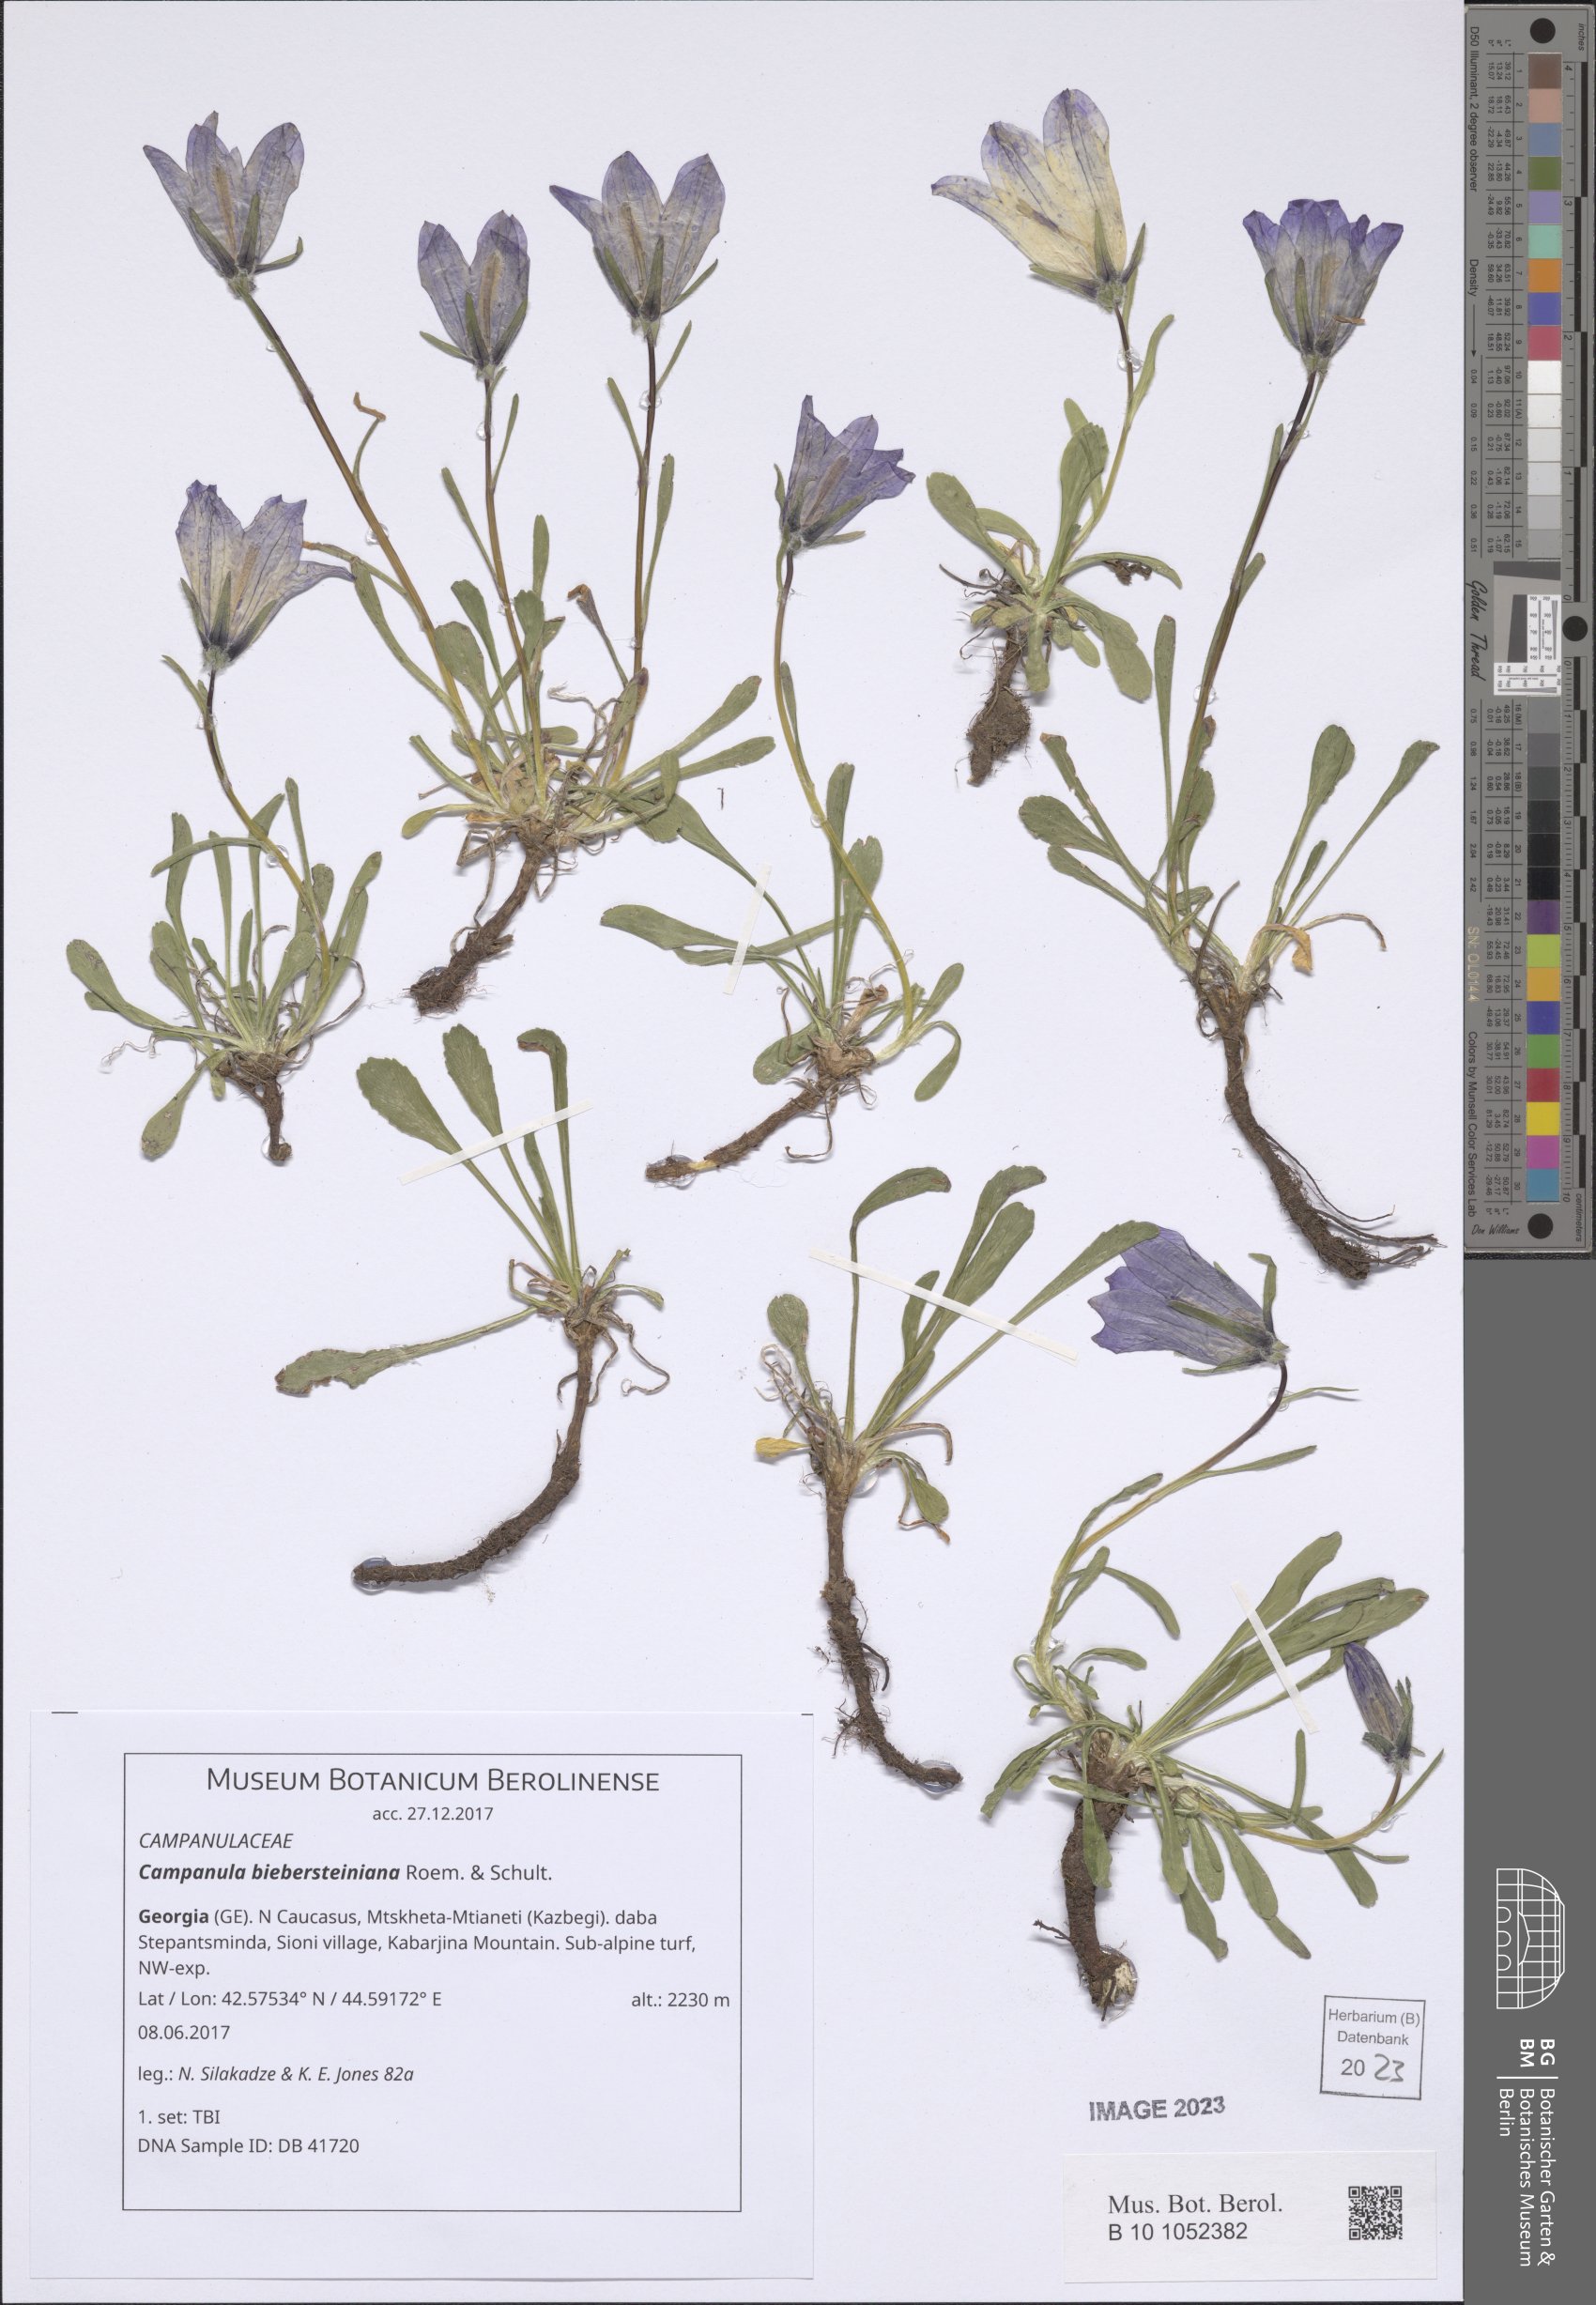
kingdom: Plantae
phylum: Tracheophyta
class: Magnoliopsida
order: Asterales
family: Campanulaceae
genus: Campanula
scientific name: Campanula tridentata
